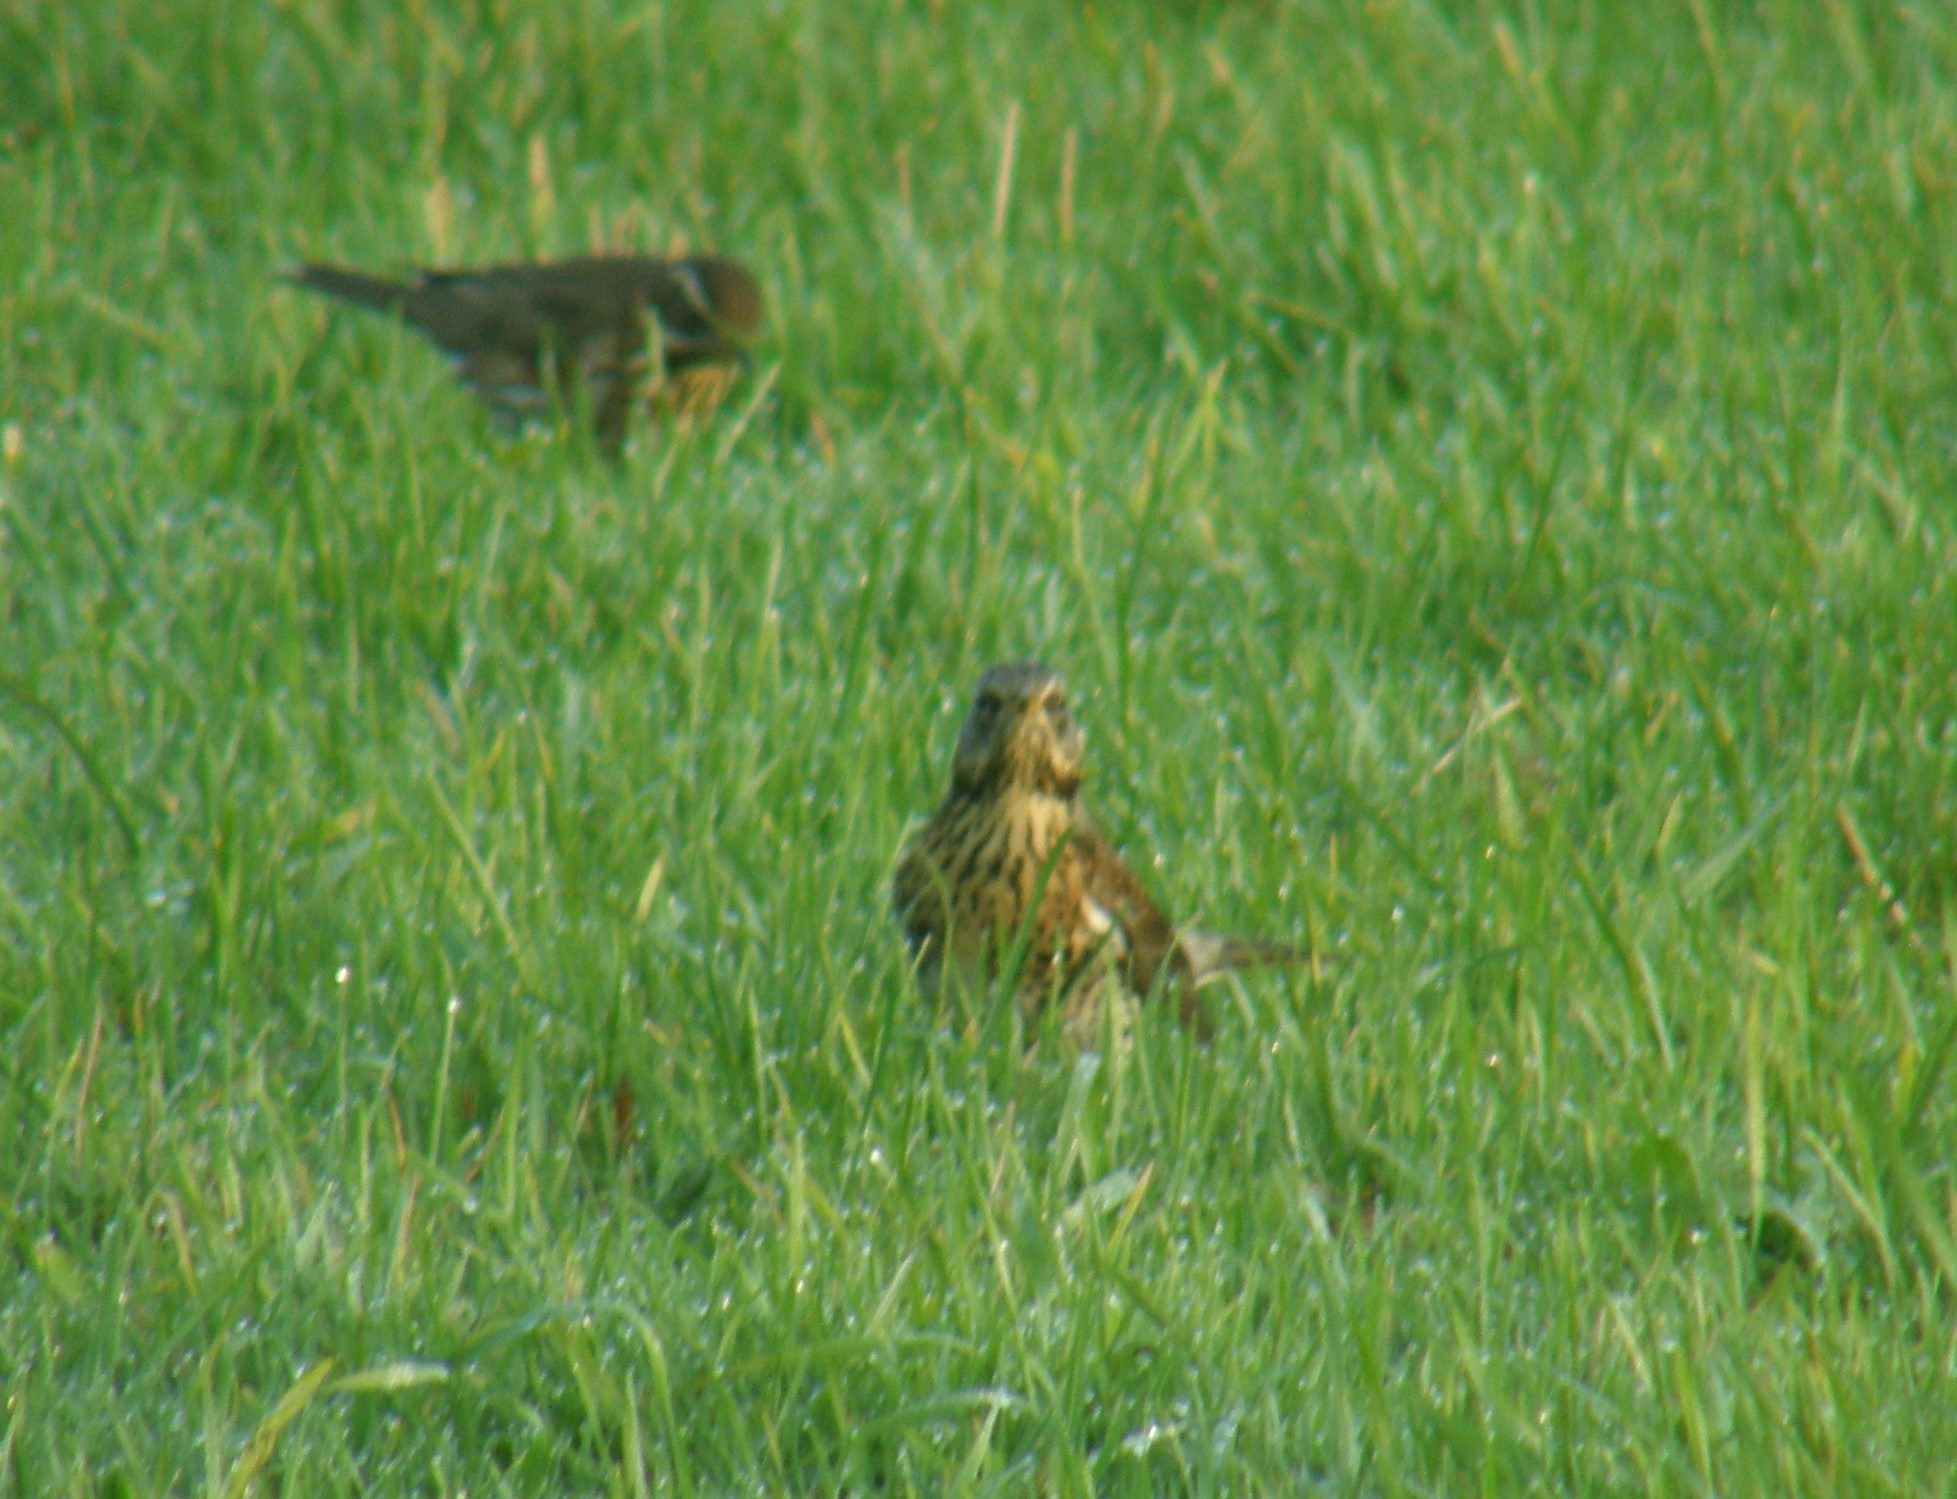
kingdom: Animalia
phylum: Chordata
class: Aves
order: Passeriformes
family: Turdidae
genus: Turdus
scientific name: Turdus pilaris
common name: Sjagger
